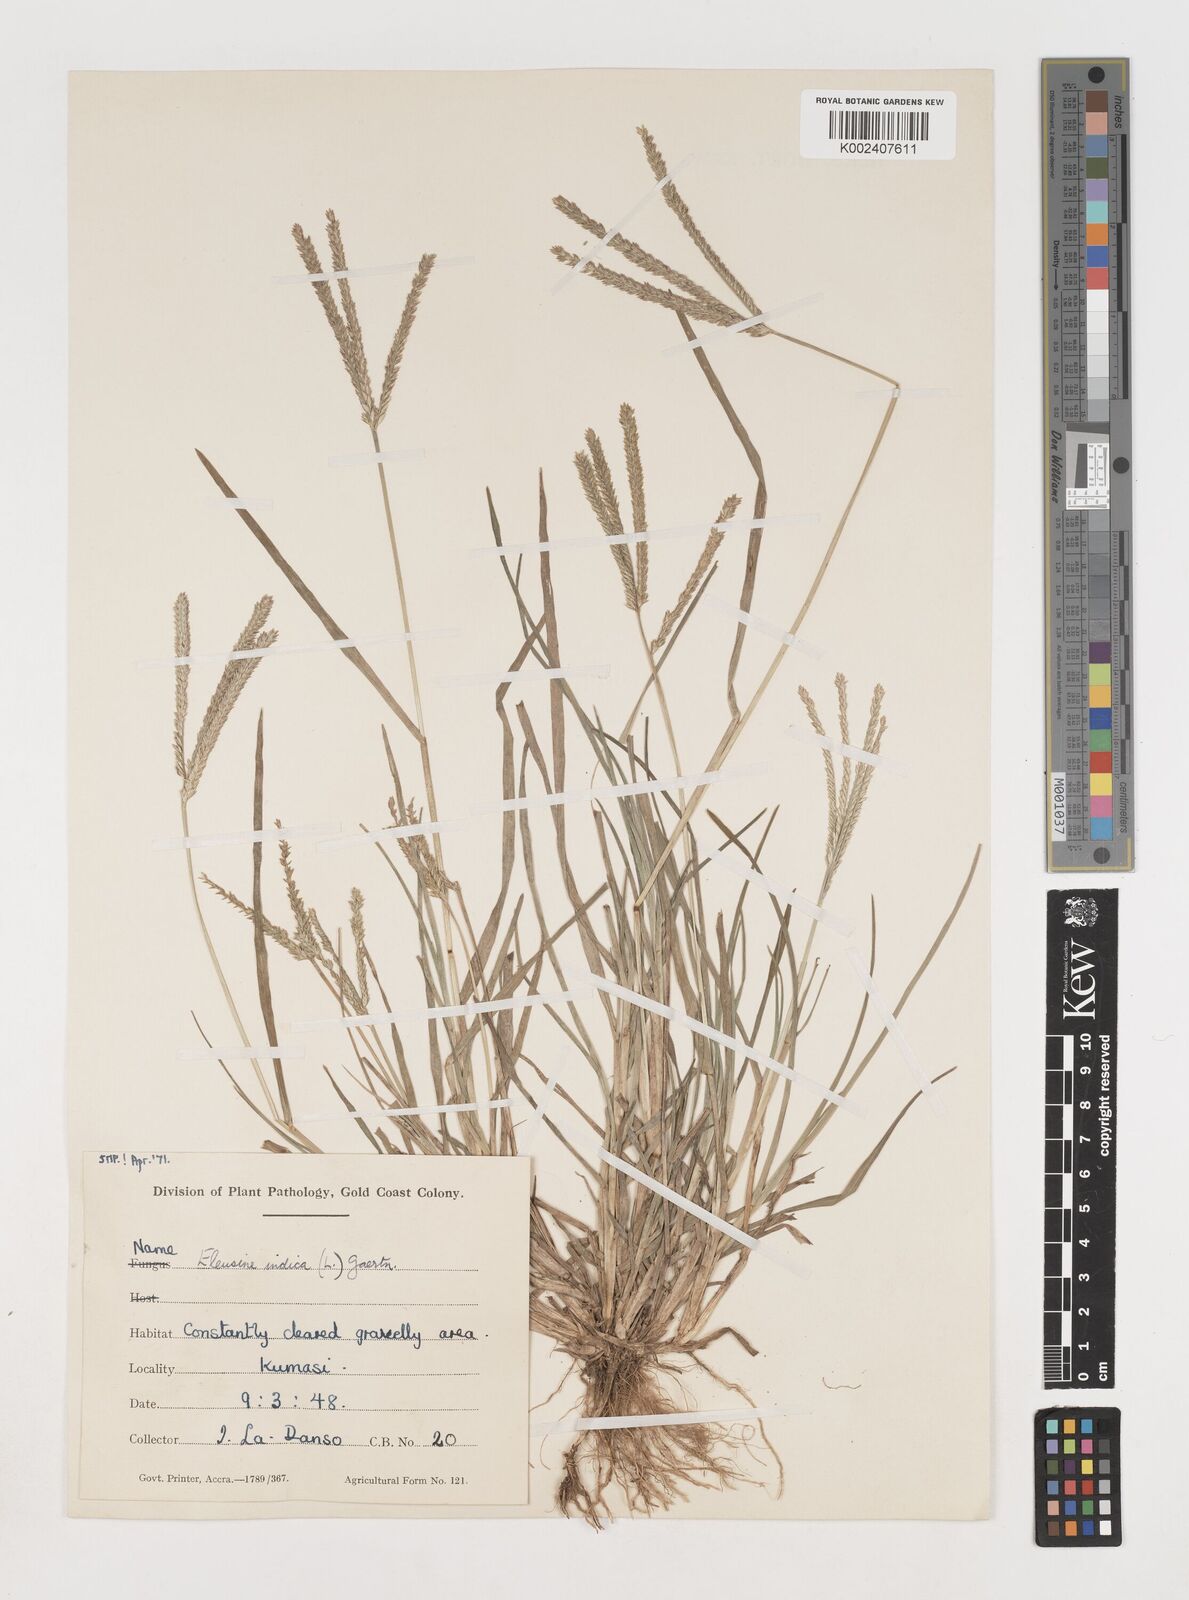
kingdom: Plantae
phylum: Tracheophyta
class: Liliopsida
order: Poales
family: Poaceae
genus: Eleusine
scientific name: Eleusine indica
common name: Yard-grass
